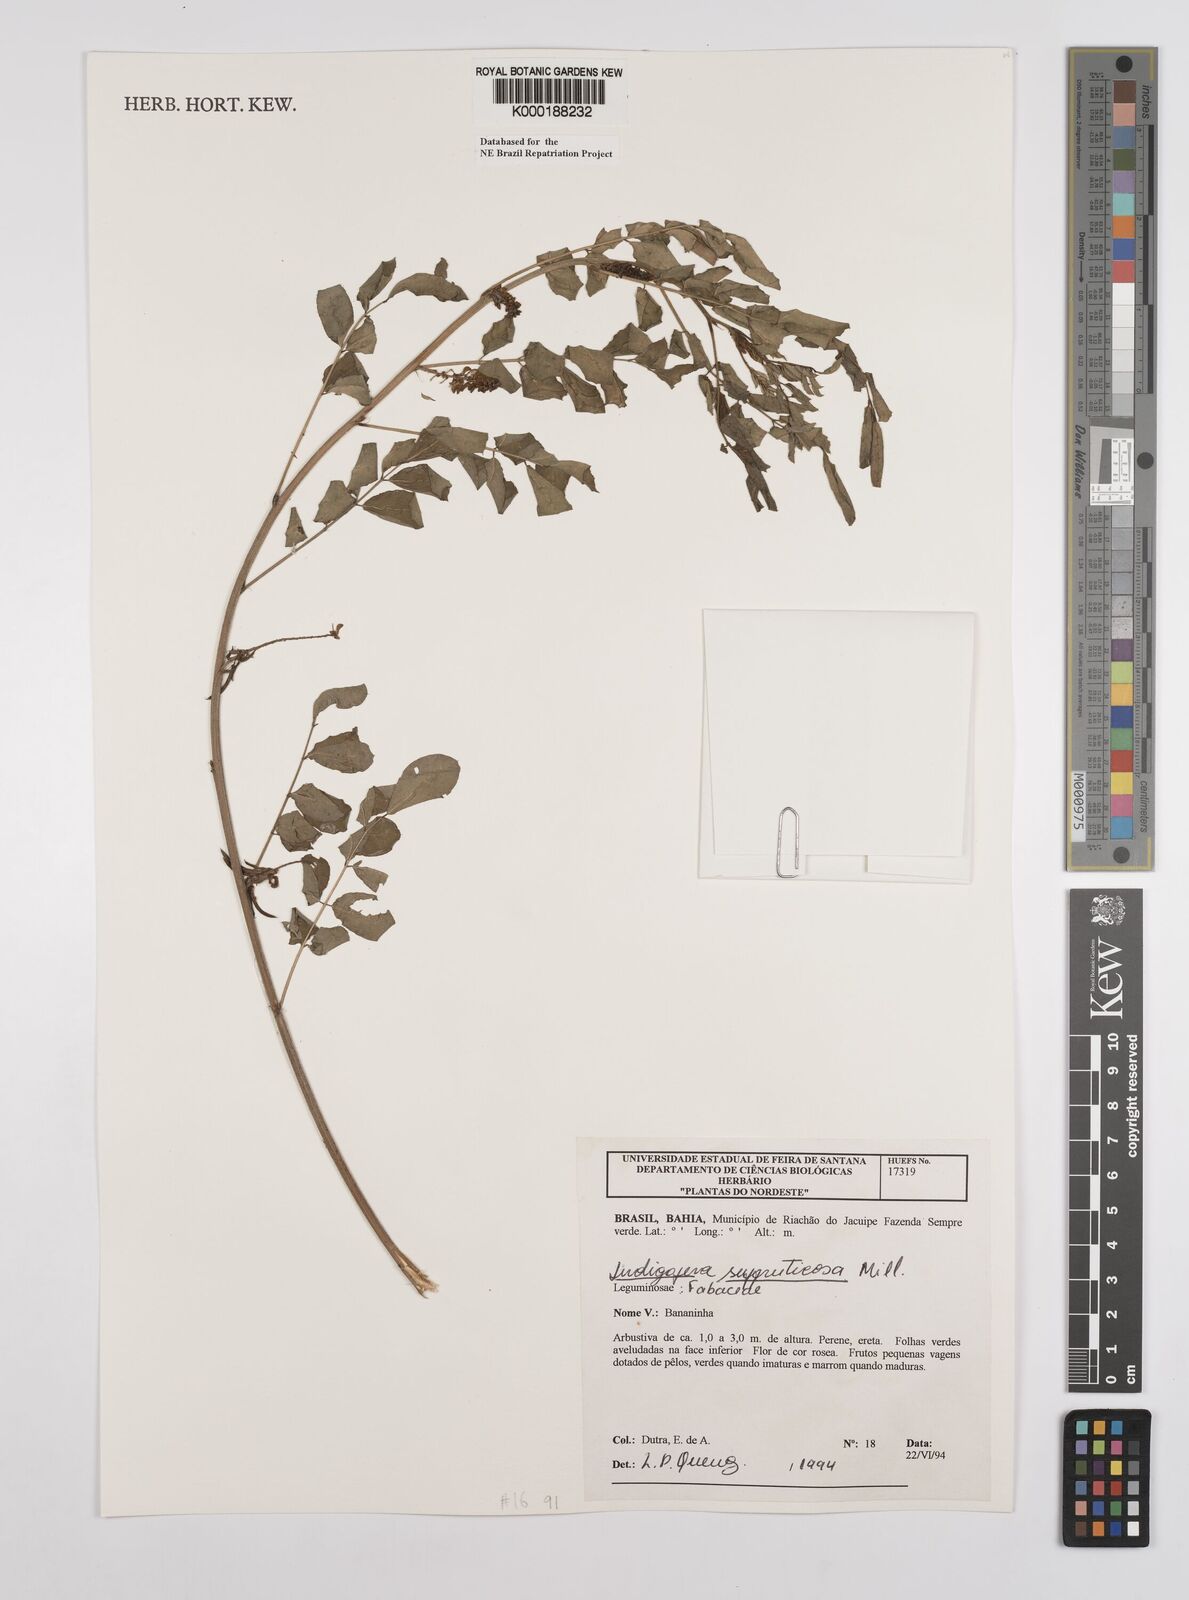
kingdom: Plantae
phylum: Tracheophyta
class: Magnoliopsida
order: Fabales
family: Fabaceae
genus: Indigofera
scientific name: Indigofera suffruticosa
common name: Anil de pasto
